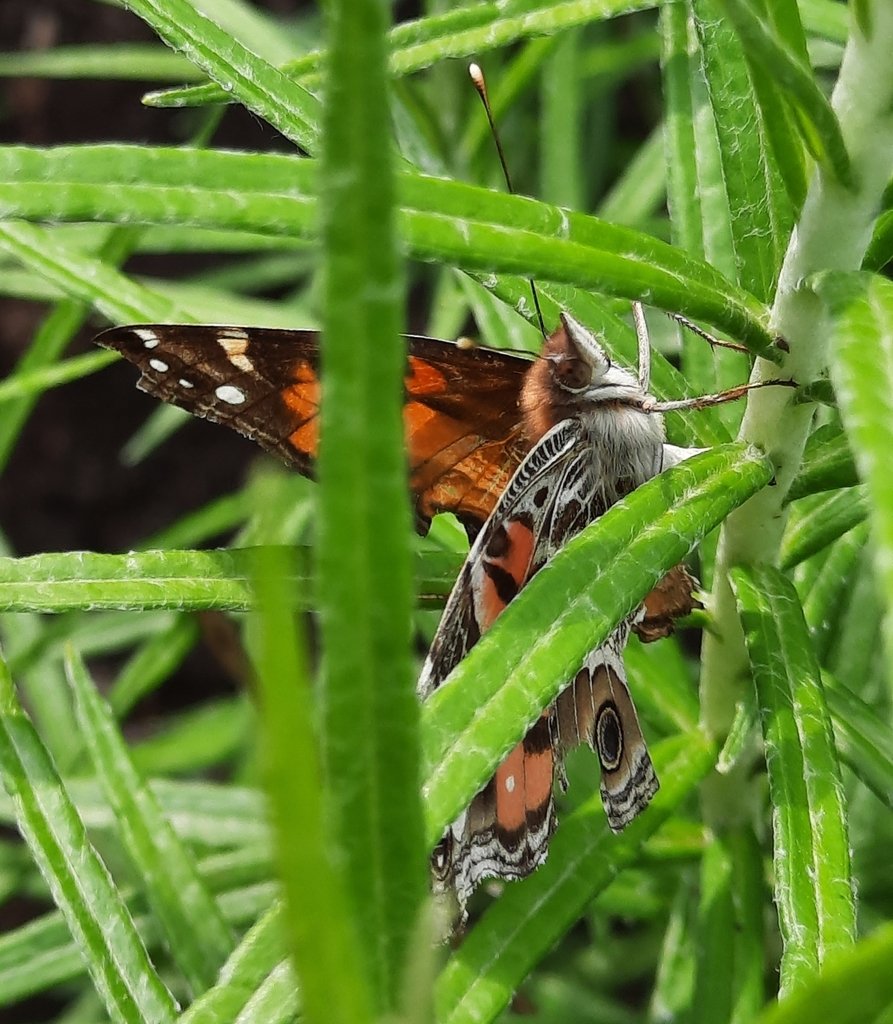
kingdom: Animalia
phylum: Arthropoda
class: Insecta
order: Lepidoptera
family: Nymphalidae
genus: Vanessa
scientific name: Vanessa virginiensis
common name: American Lady
